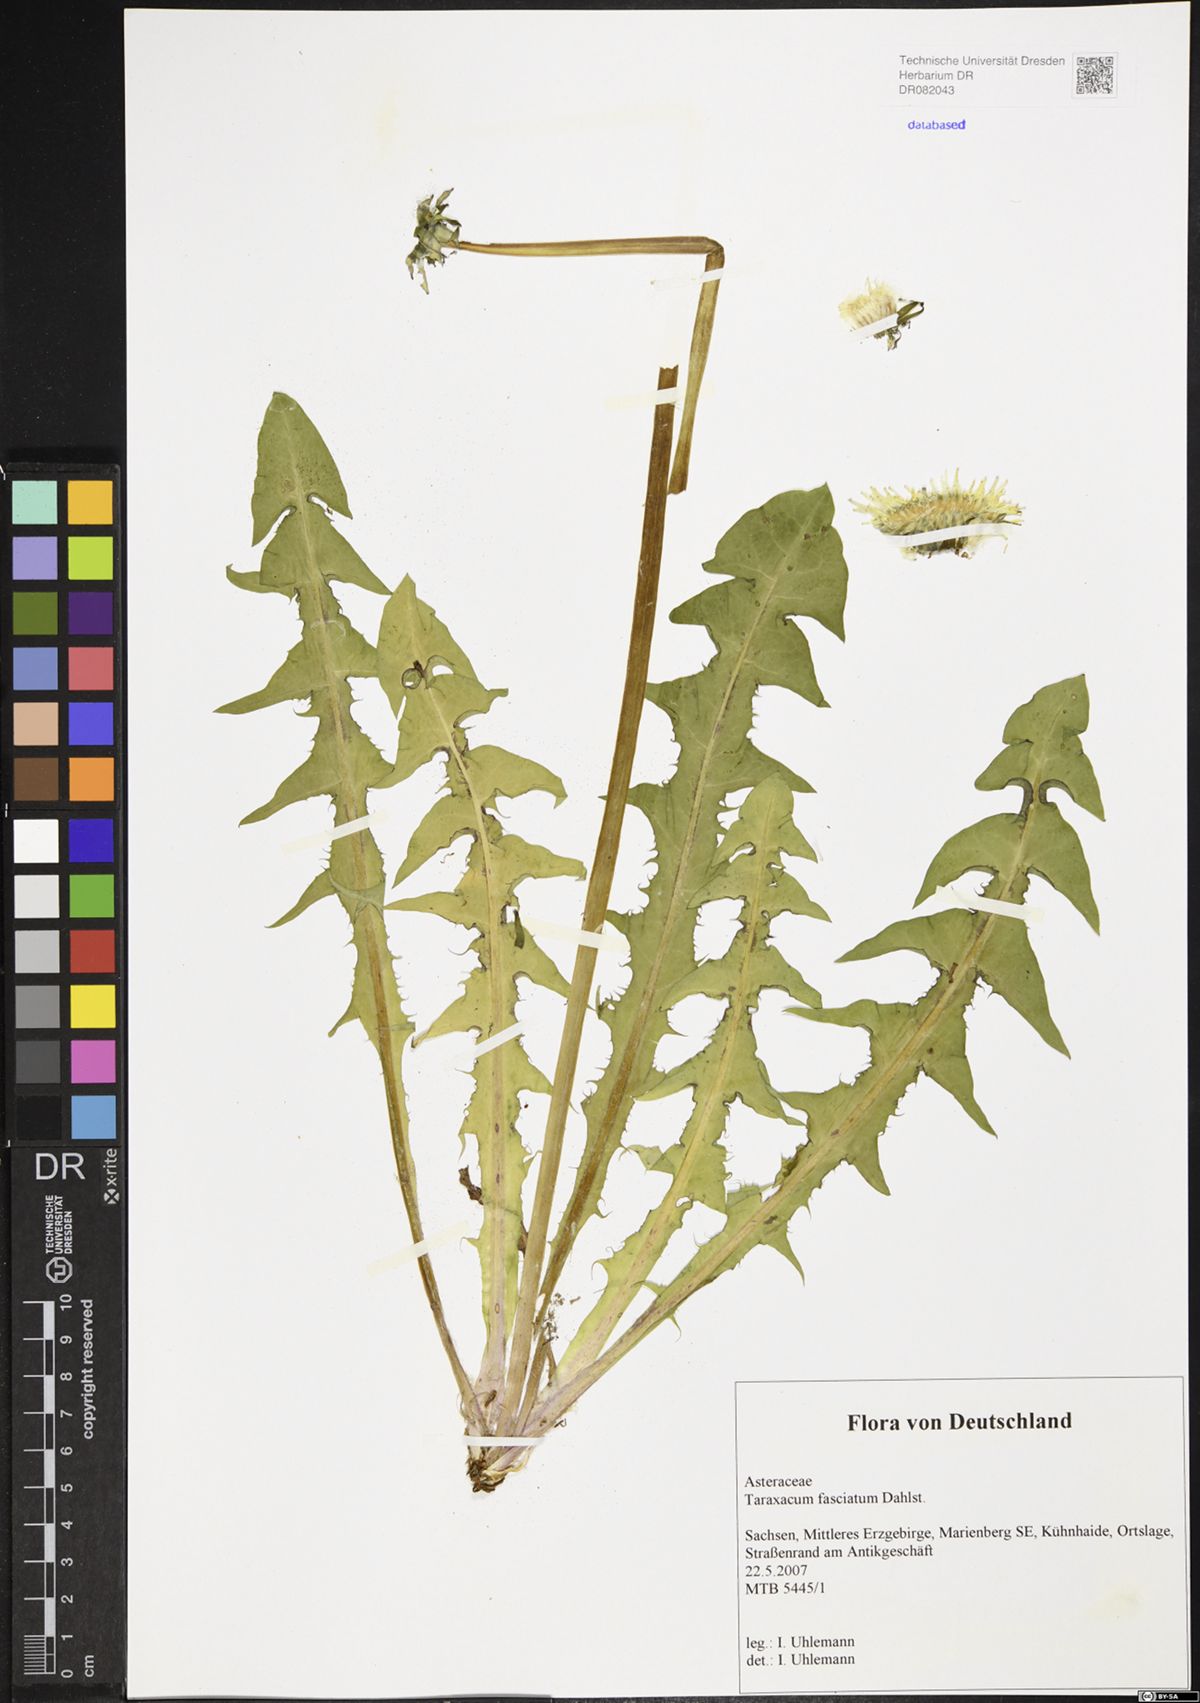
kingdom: Plantae
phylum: Tracheophyta
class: Magnoliopsida
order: Asterales
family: Asteraceae
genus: Taraxacum
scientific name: Taraxacum fasciatum
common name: Dense-bracted dandelion
